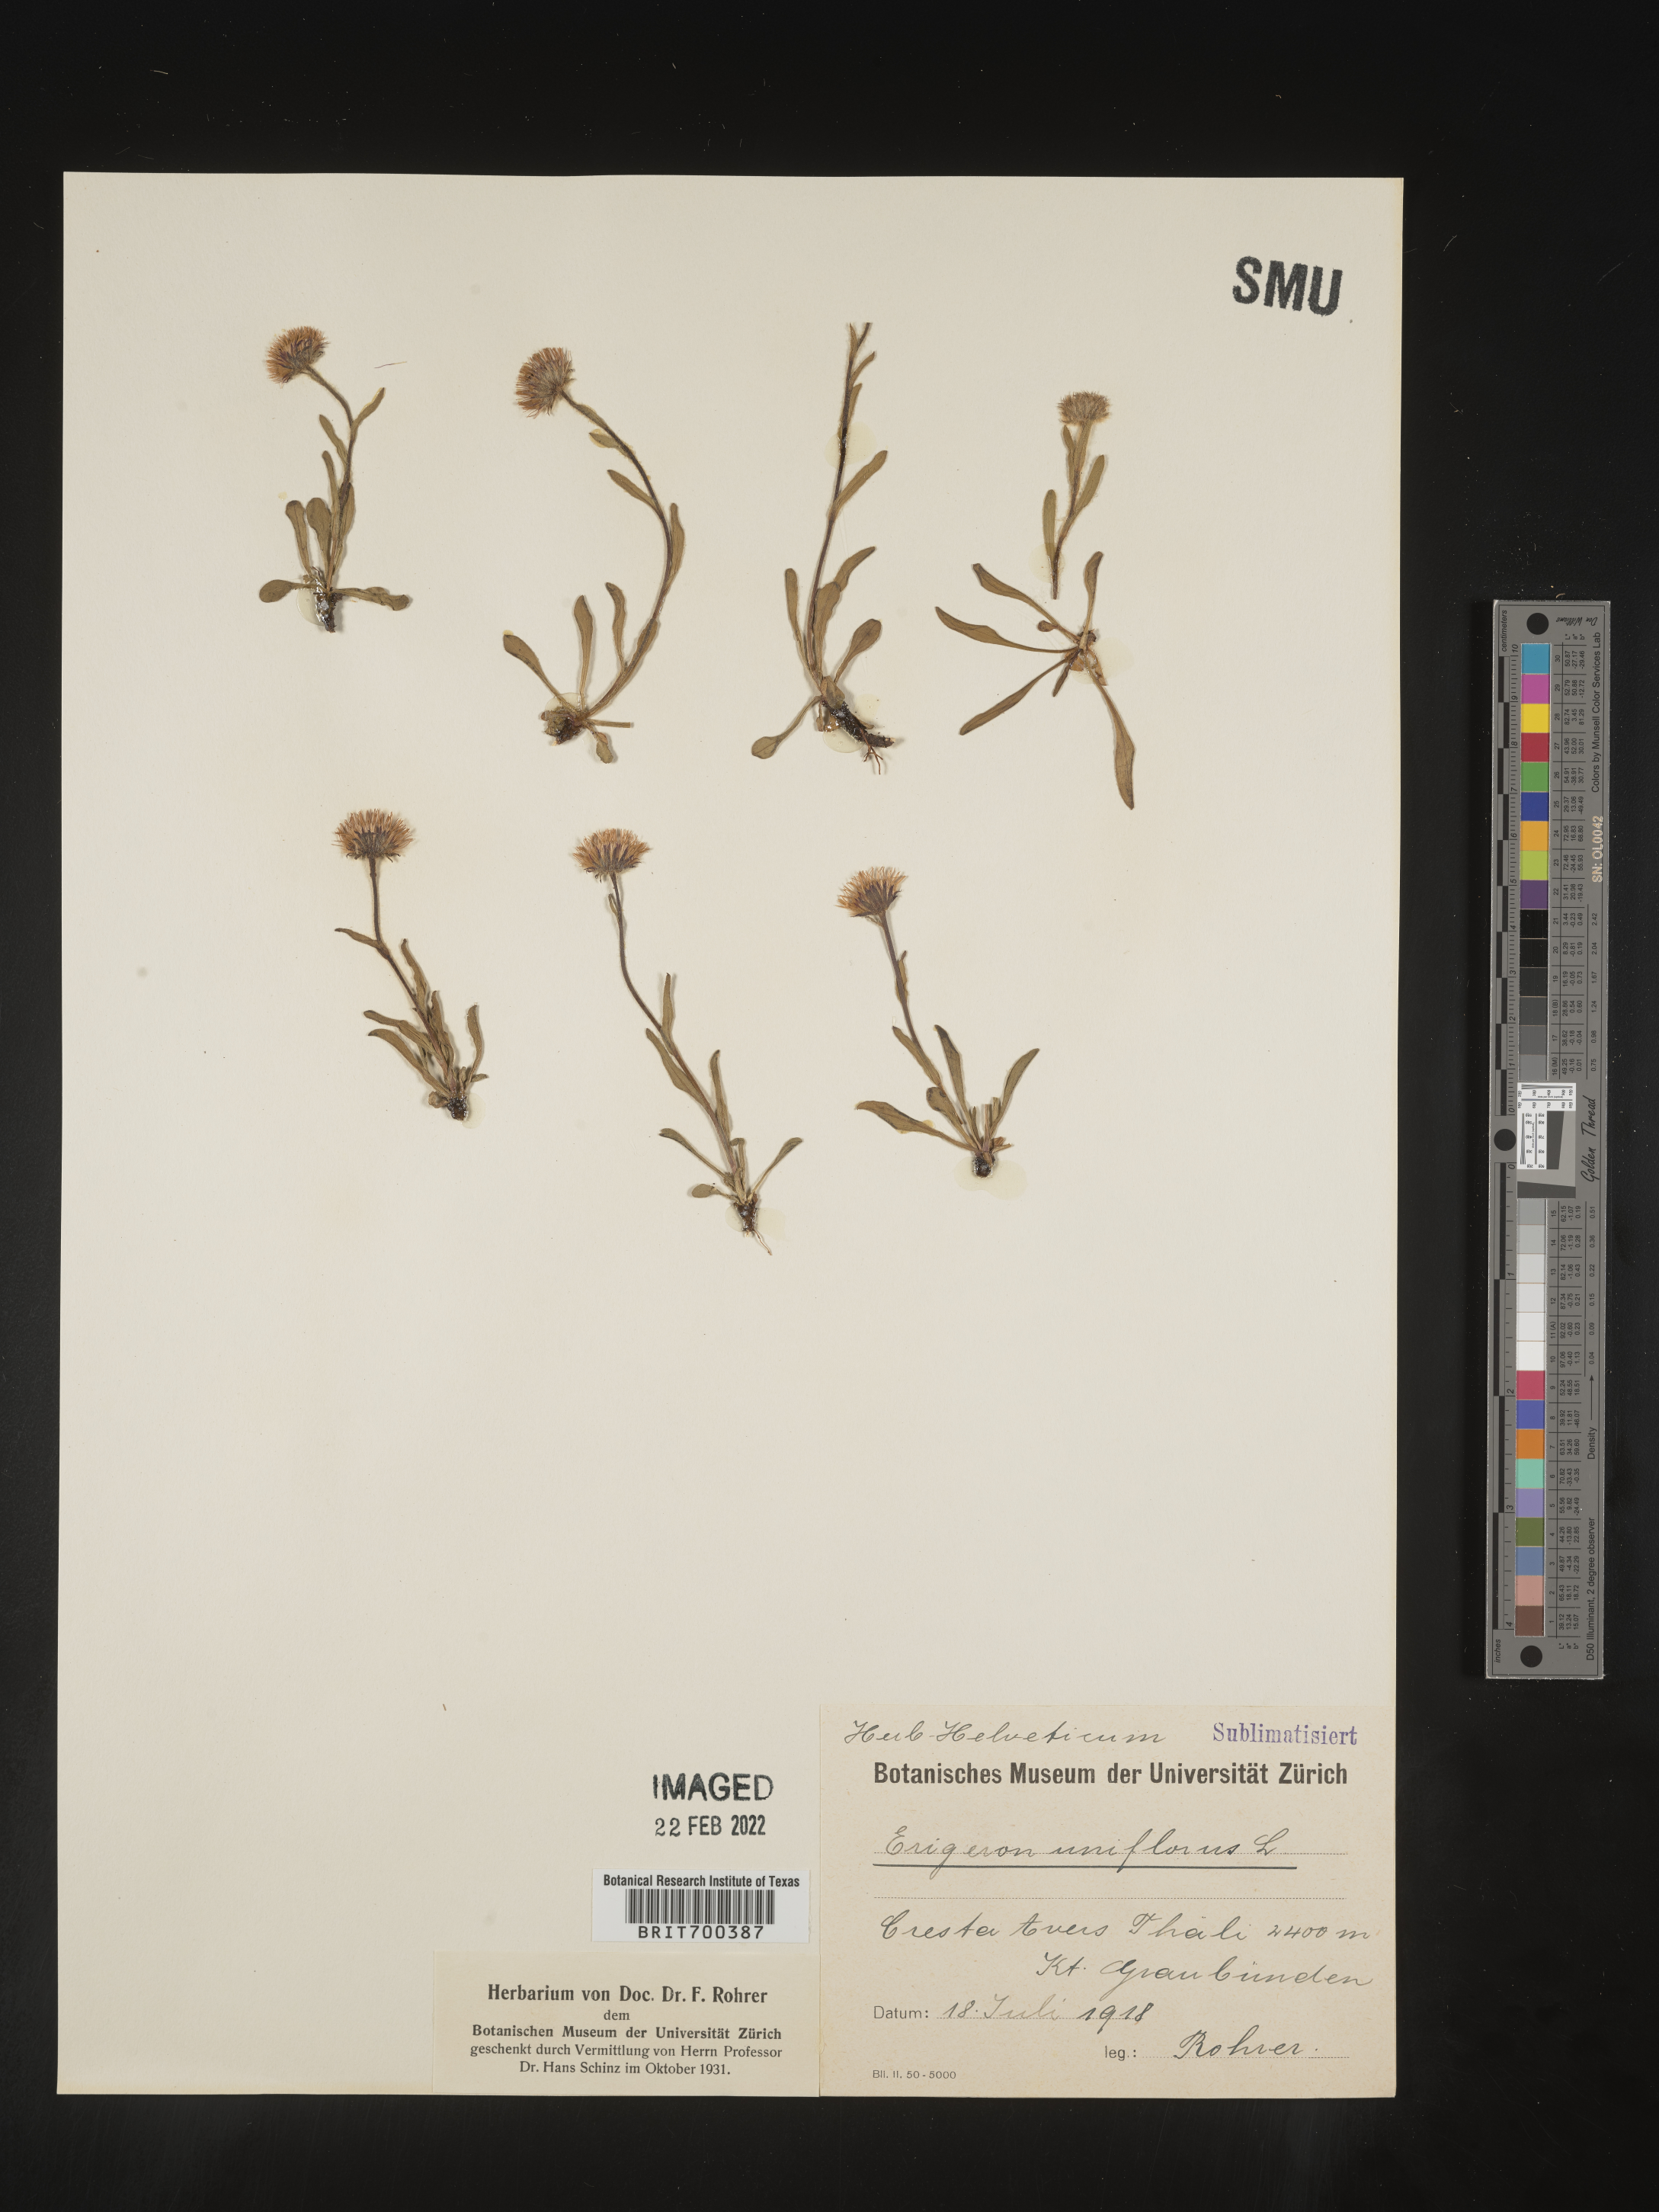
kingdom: Plantae
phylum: Tracheophyta
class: Magnoliopsida
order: Asterales
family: Asteraceae
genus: Erigeron
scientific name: Erigeron
